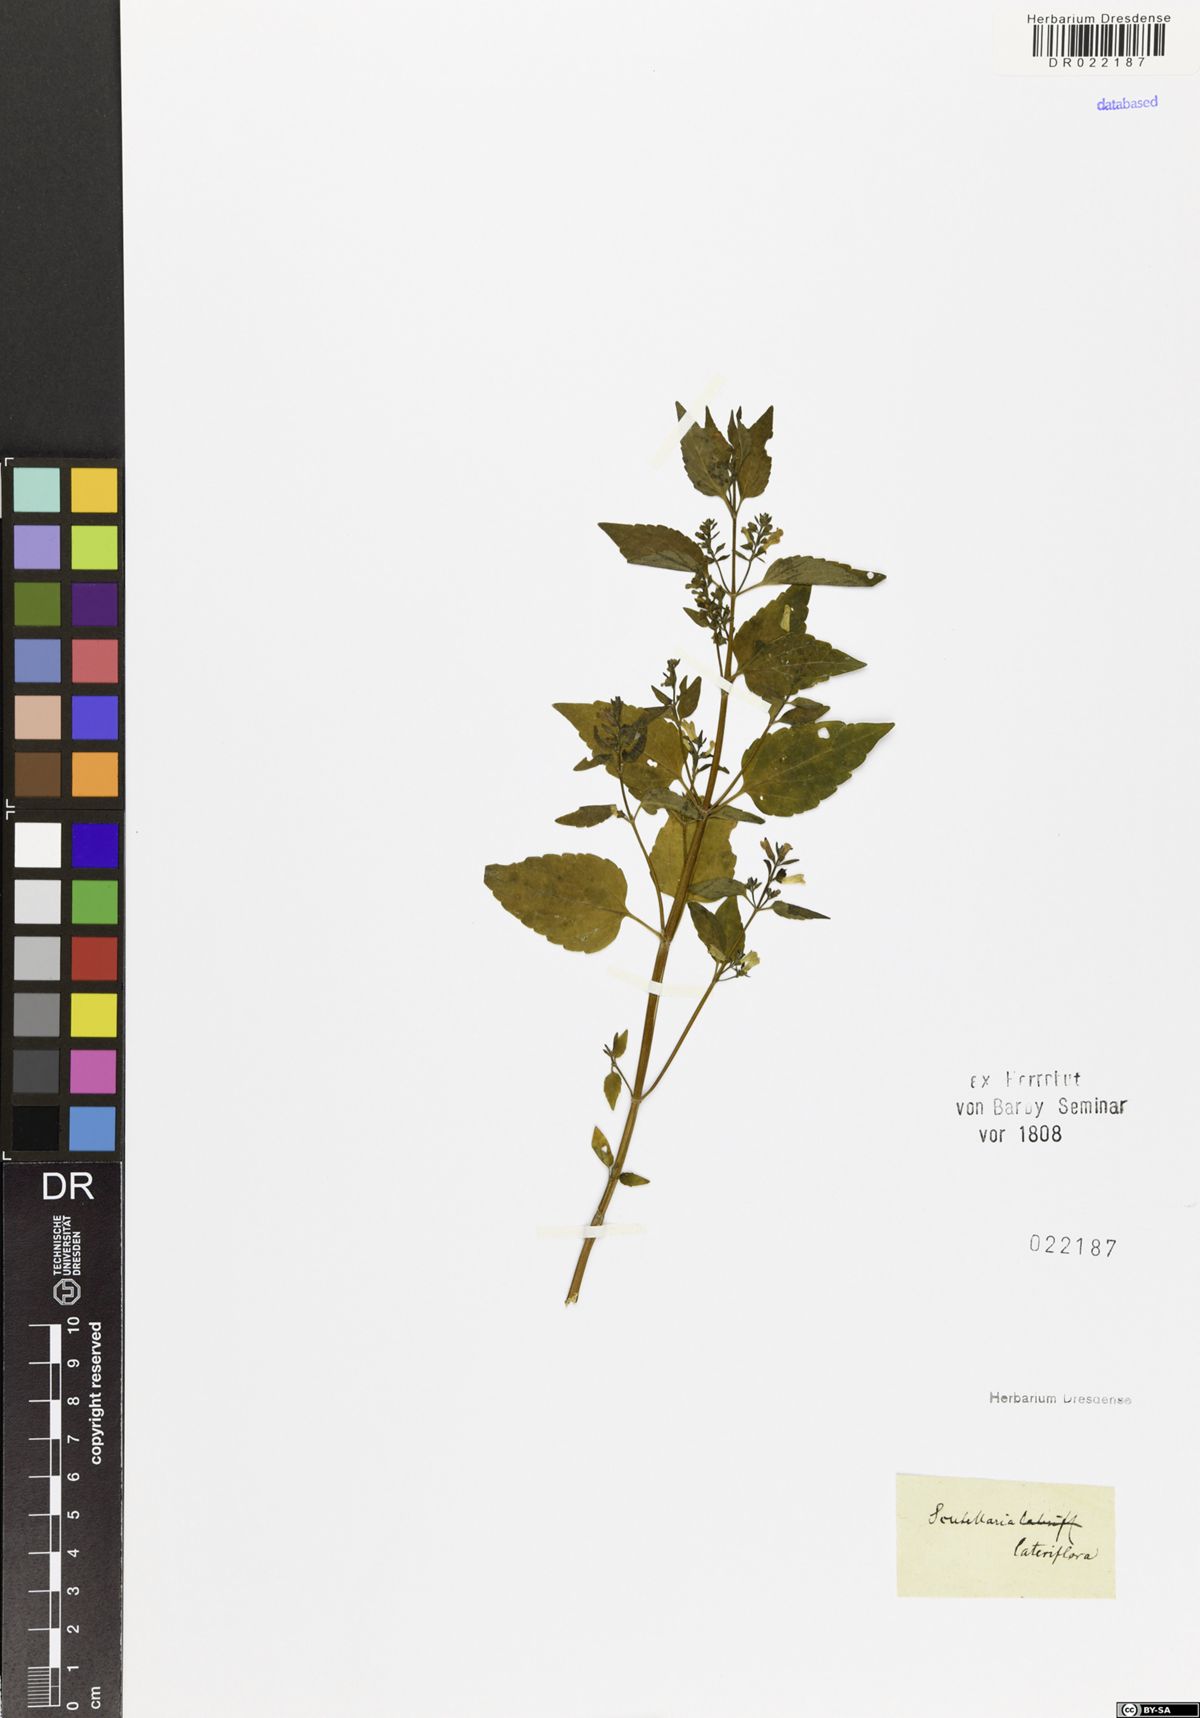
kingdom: Plantae
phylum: Tracheophyta
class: Magnoliopsida
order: Lamiales
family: Lamiaceae
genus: Scutellaria
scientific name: Scutellaria lateriflora
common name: Blue skullcap
